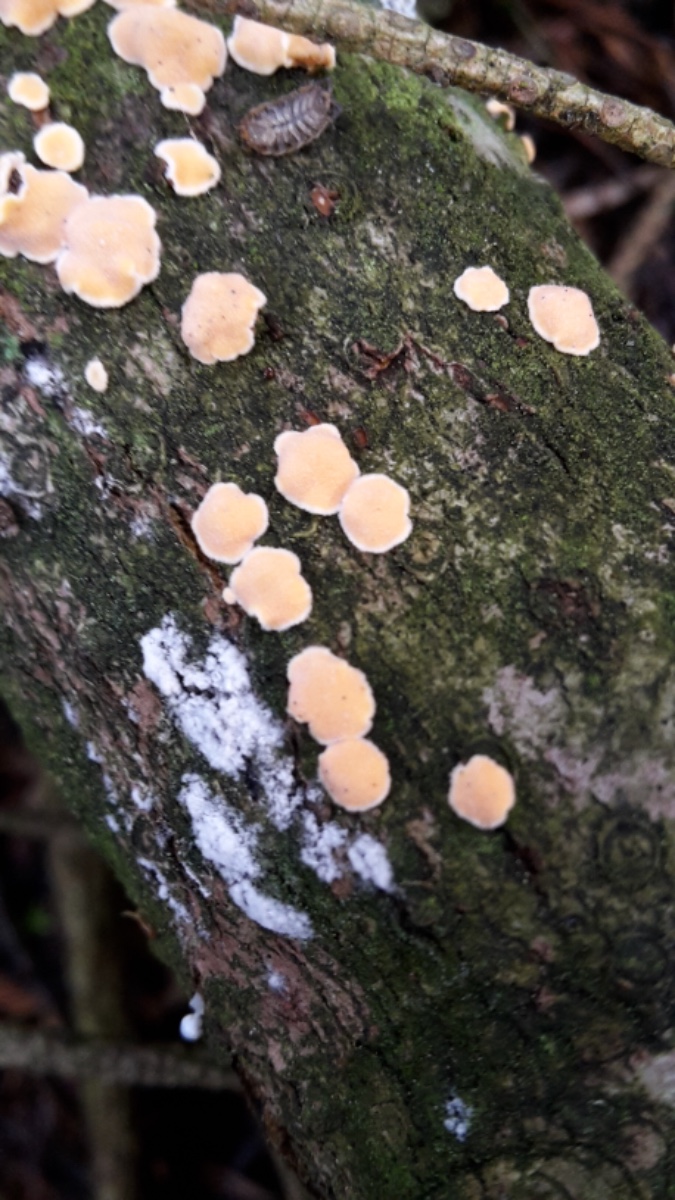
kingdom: Fungi
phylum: Basidiomycota
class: Agaricomycetes
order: Russulales
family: Stereaceae
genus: Aleurodiscus
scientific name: Aleurodiscus amorphus
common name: orange skiveskorpe
